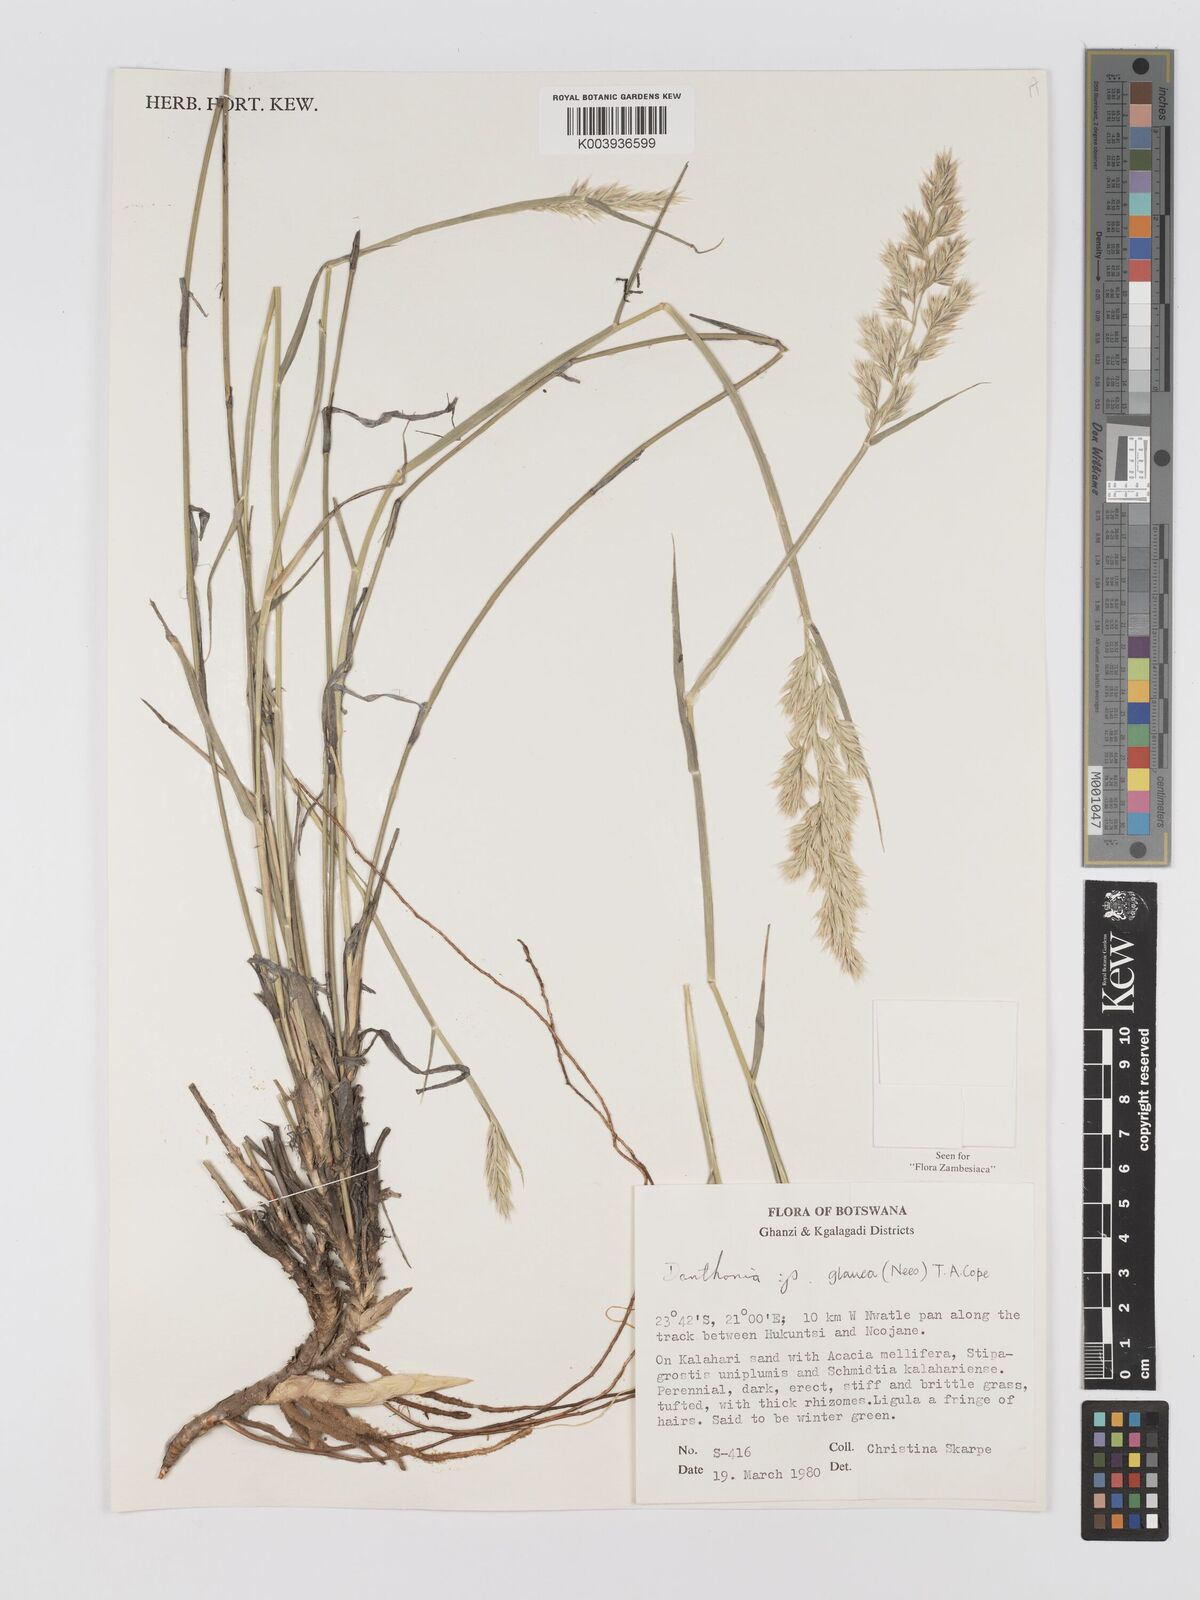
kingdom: Plantae
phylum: Tracheophyta
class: Liliopsida
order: Poales
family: Poaceae
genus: Centropodia
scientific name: Centropodia glauca
